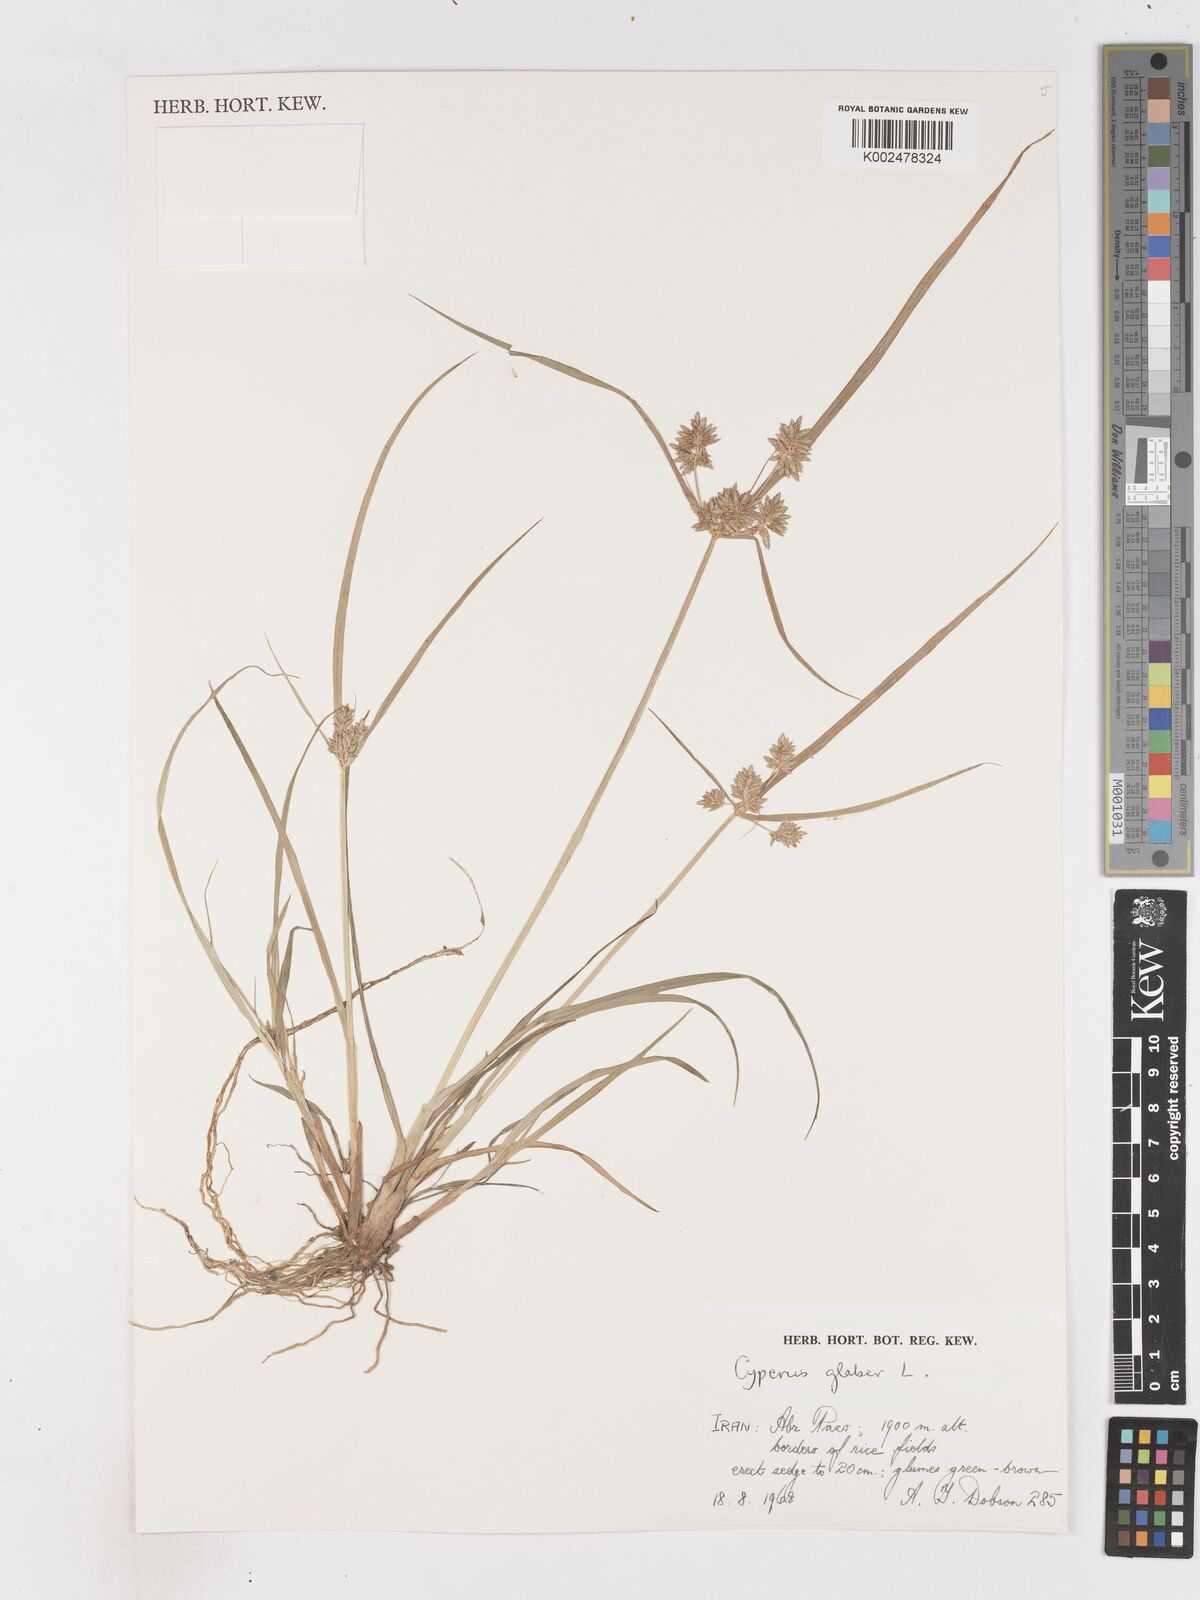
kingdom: Plantae
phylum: Tracheophyta
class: Liliopsida
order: Poales
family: Cyperaceae
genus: Cyperus
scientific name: Cyperus glaber
